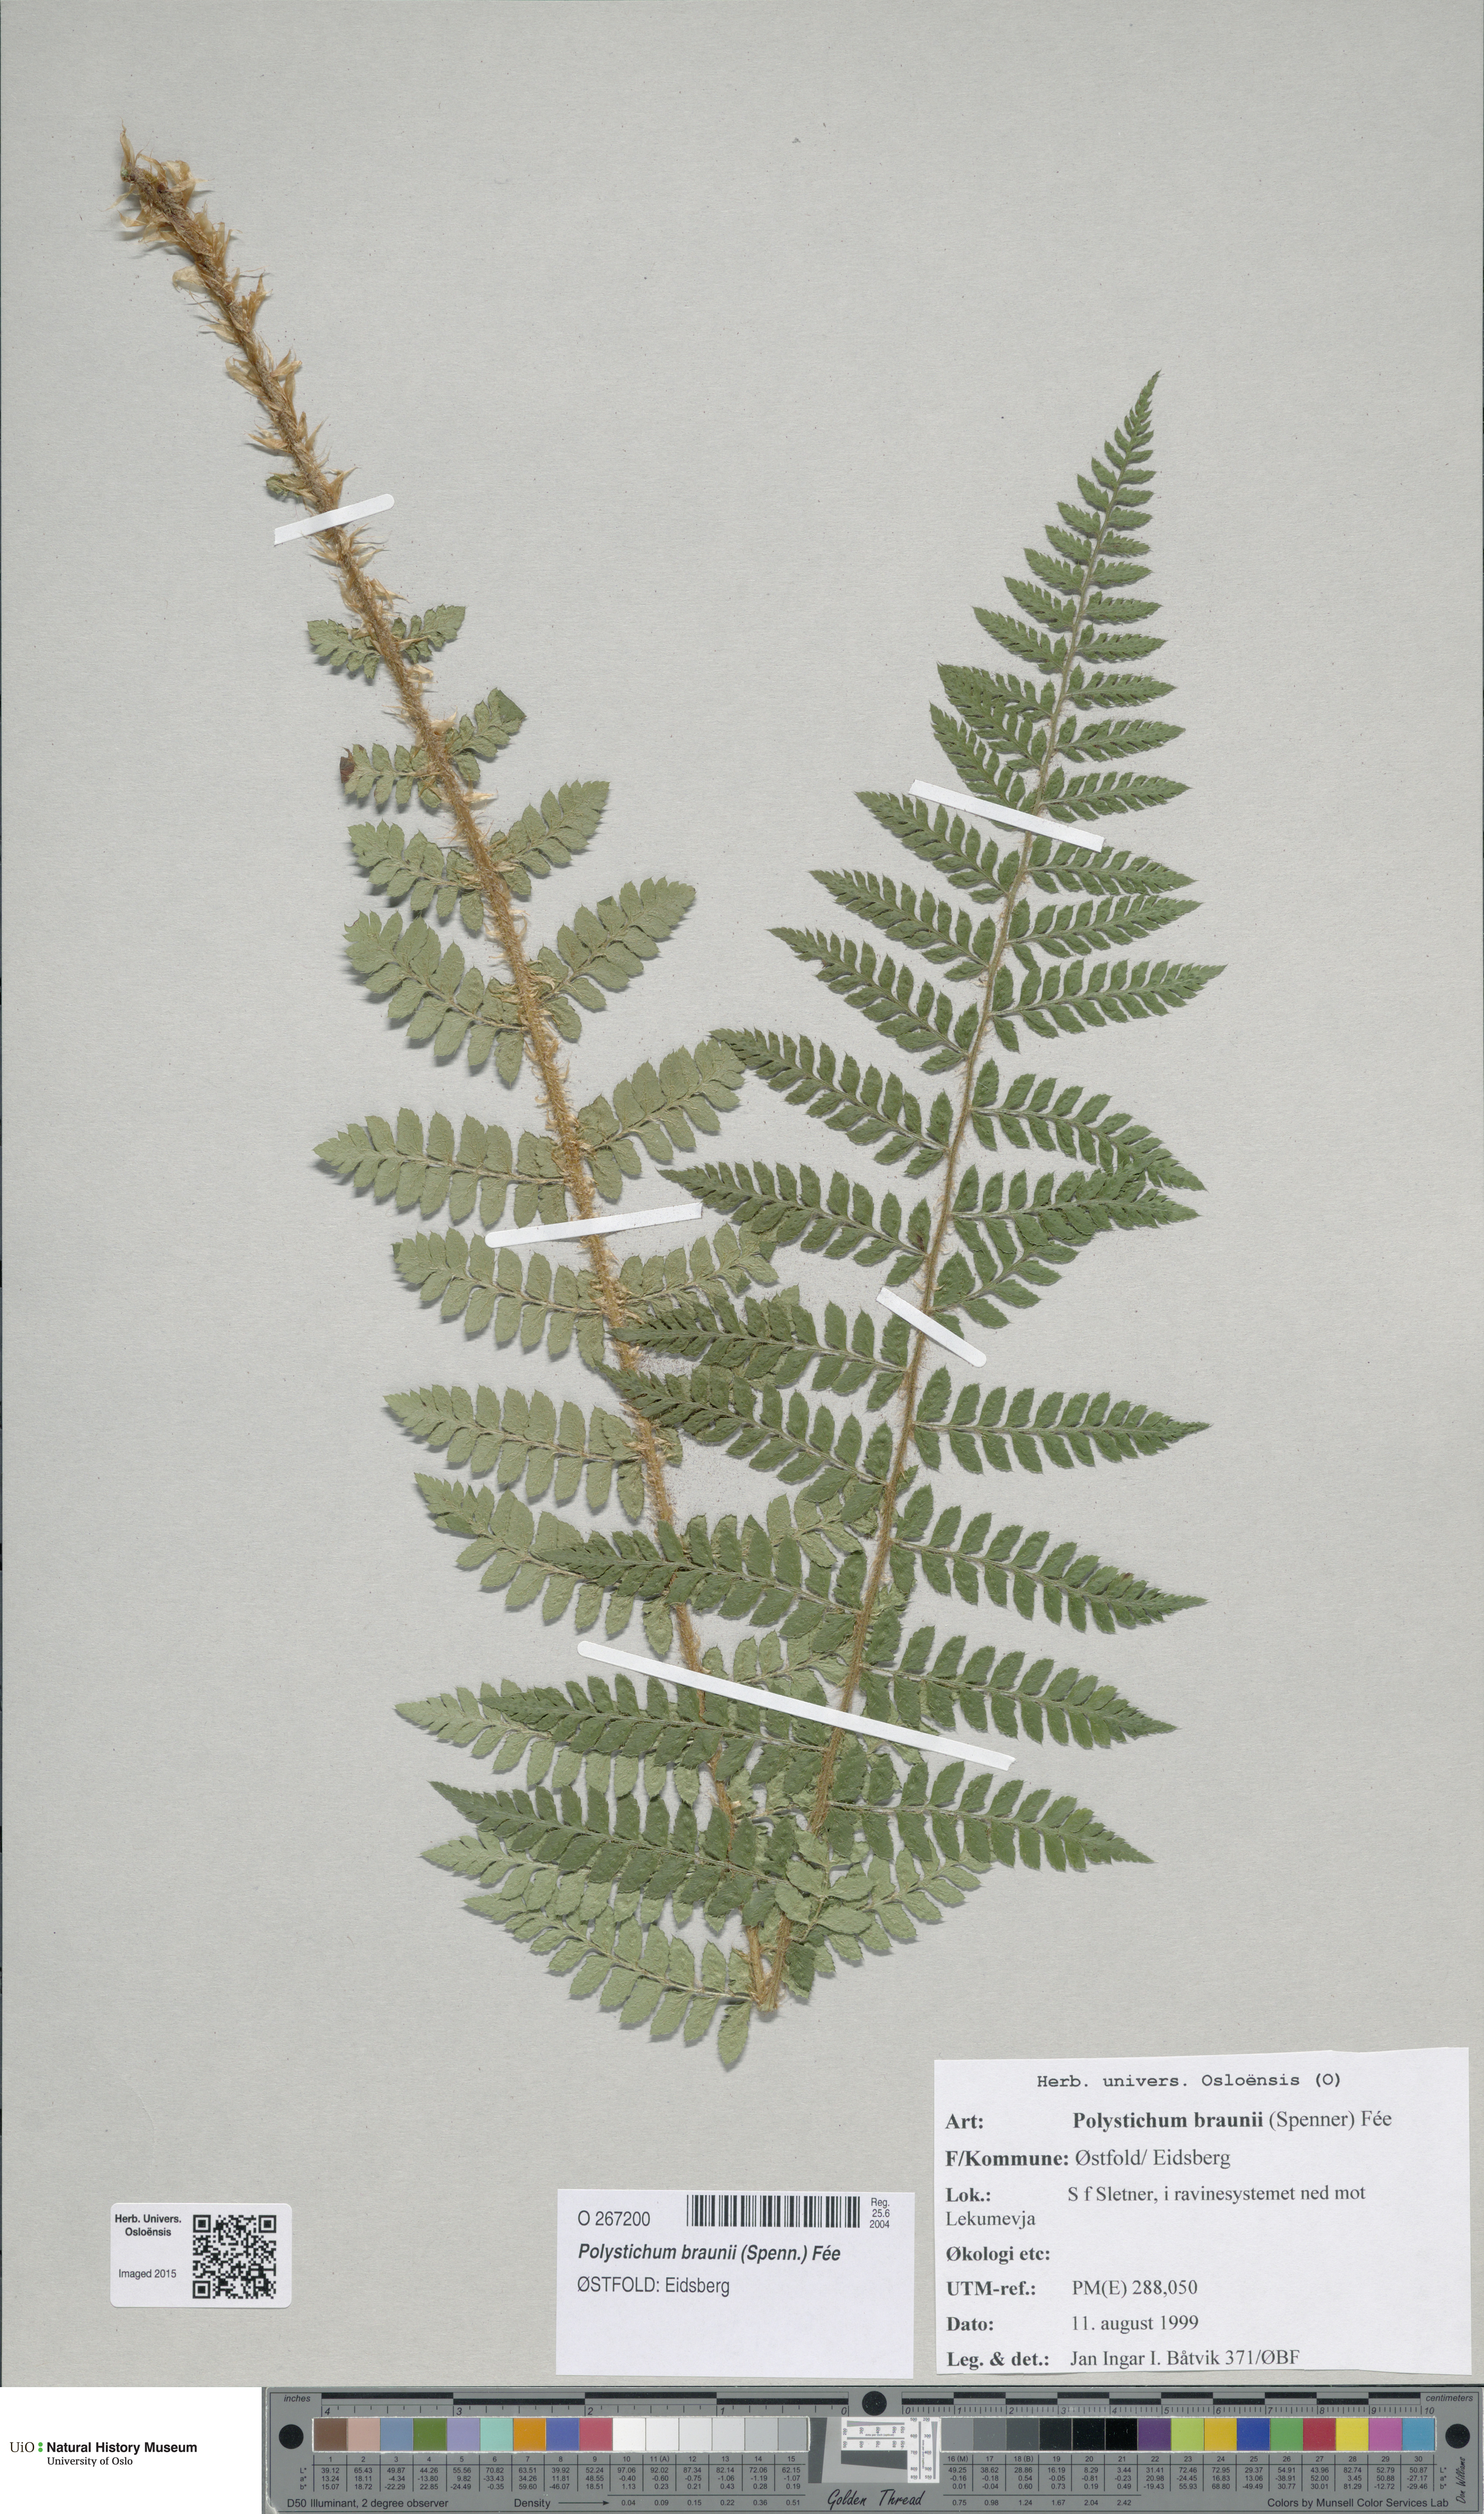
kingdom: Plantae
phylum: Tracheophyta
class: Polypodiopsida
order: Polypodiales
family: Dryopteridaceae
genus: Polystichum
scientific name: Polystichum braunii
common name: Braun's holly fern
